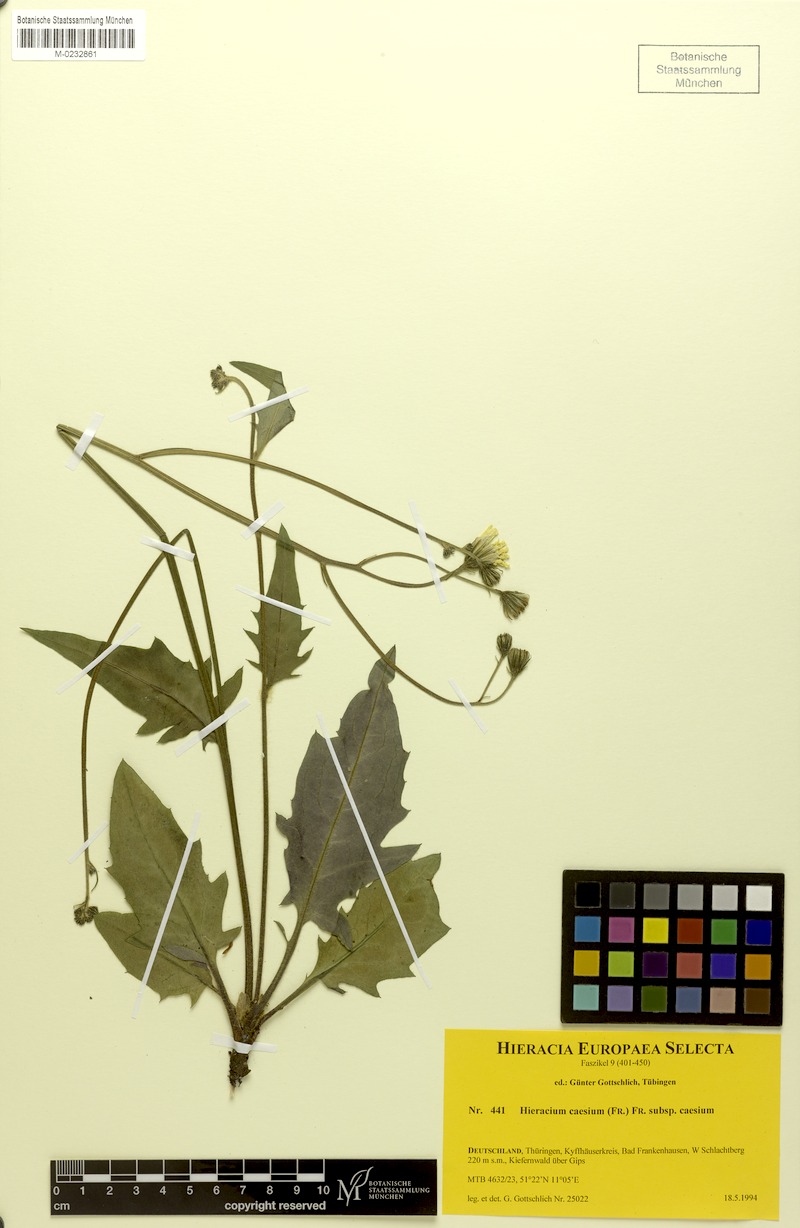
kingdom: Plantae
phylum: Tracheophyta
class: Magnoliopsida
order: Asterales
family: Asteraceae
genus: Hieracium
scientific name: Hieracium caesium
